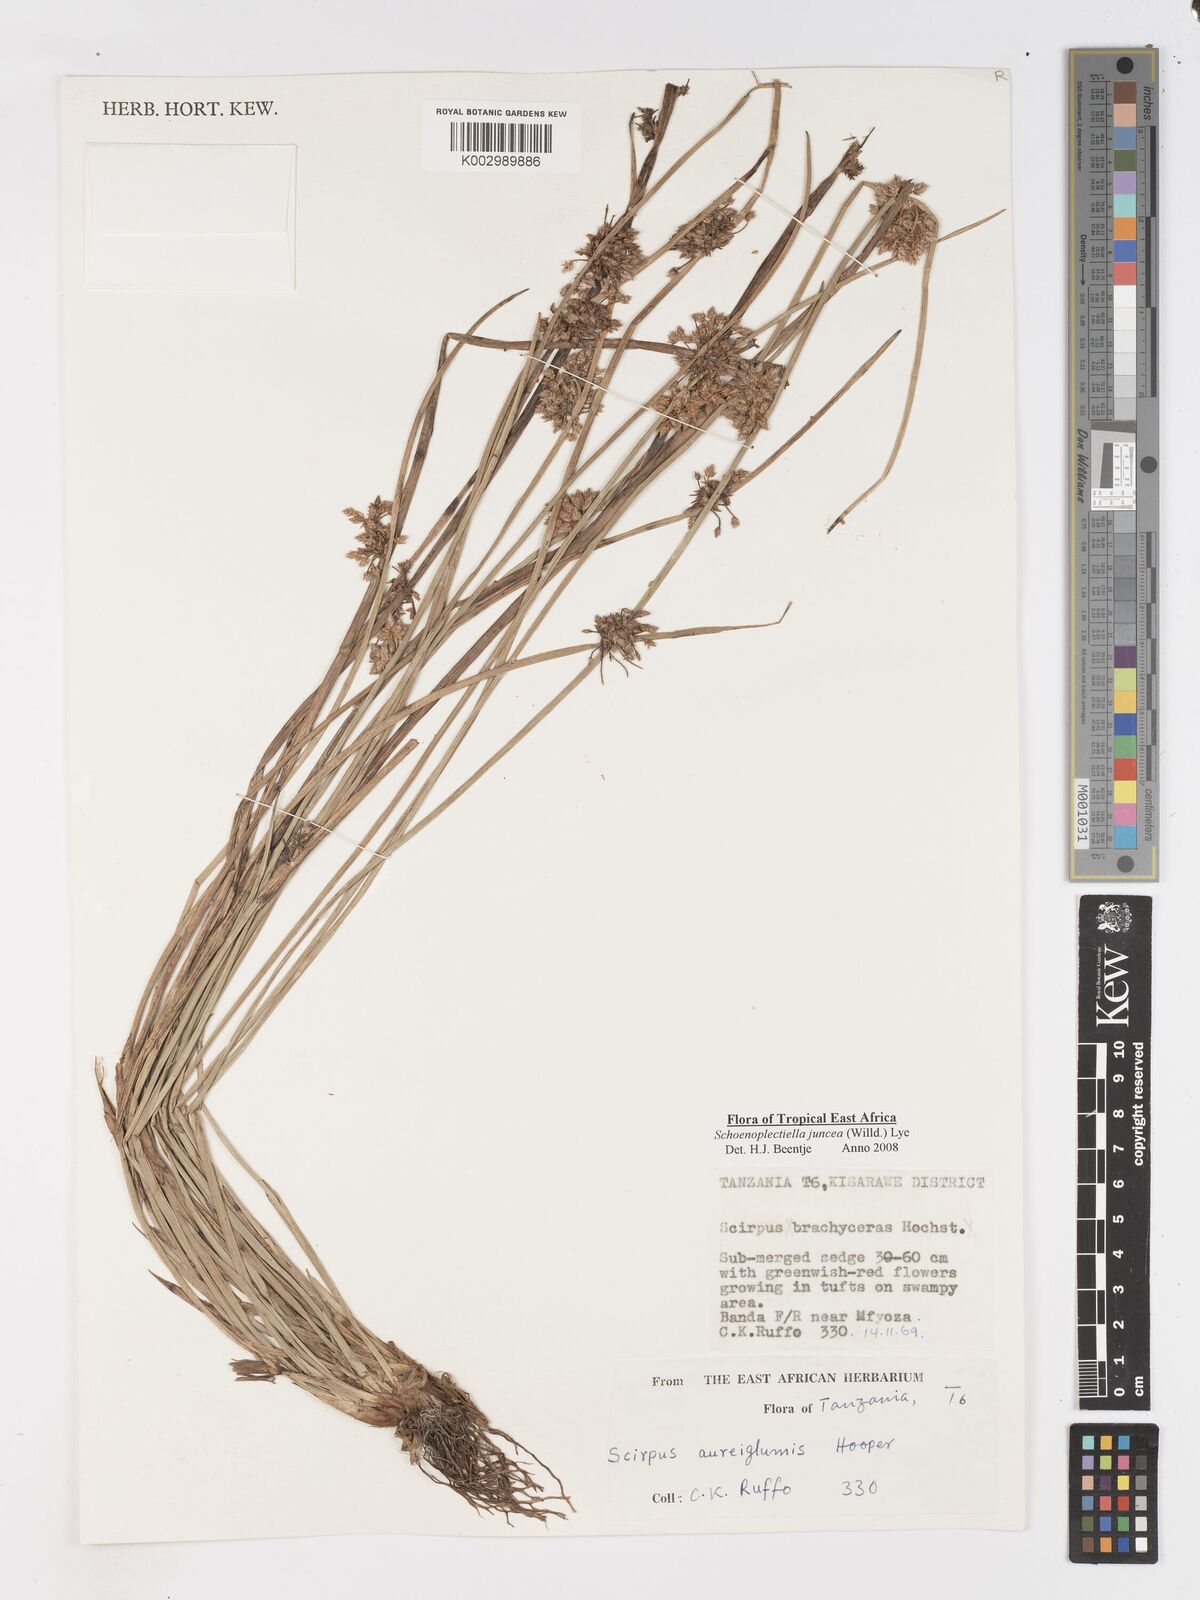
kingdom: Plantae
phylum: Tracheophyta
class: Liliopsida
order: Poales
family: Cyperaceae
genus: Schoenoplectiella
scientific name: Schoenoplectiella juncea
